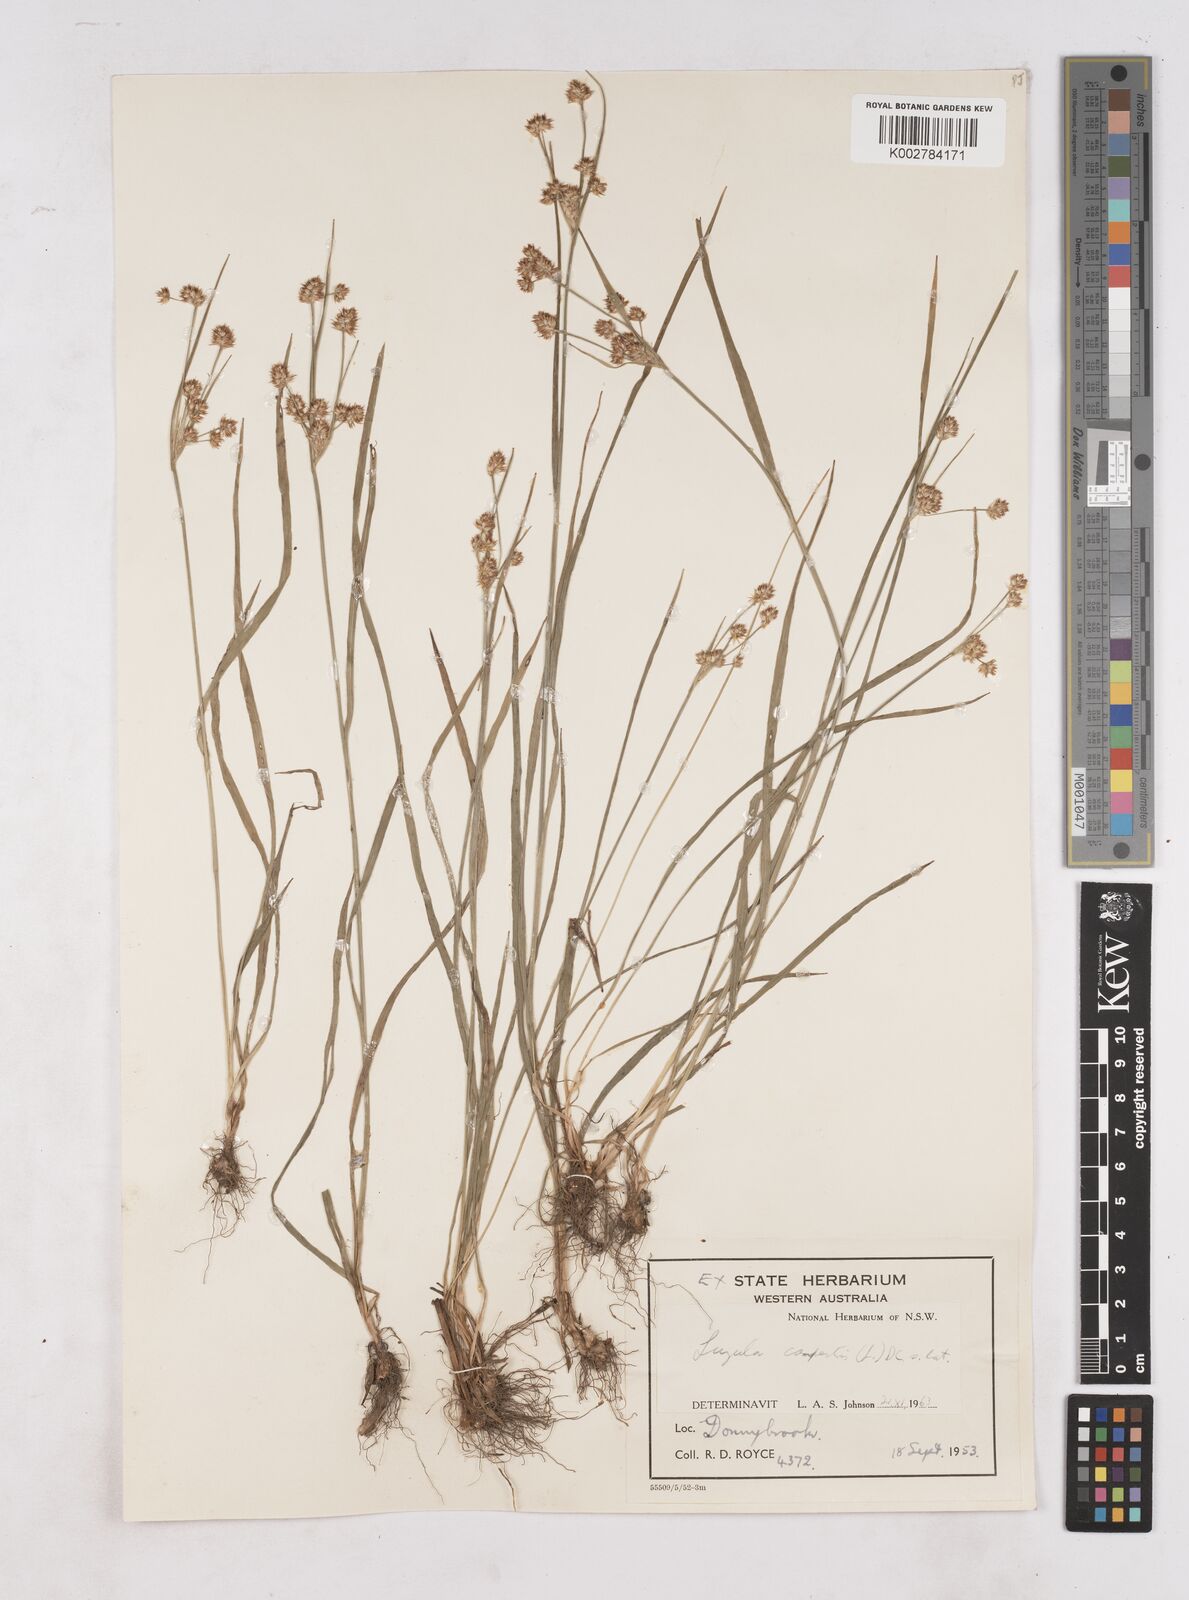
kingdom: Plantae
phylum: Tracheophyta
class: Liliopsida
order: Poales
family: Juncaceae
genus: Luzula
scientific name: Luzula campestris
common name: Field wood-rush
